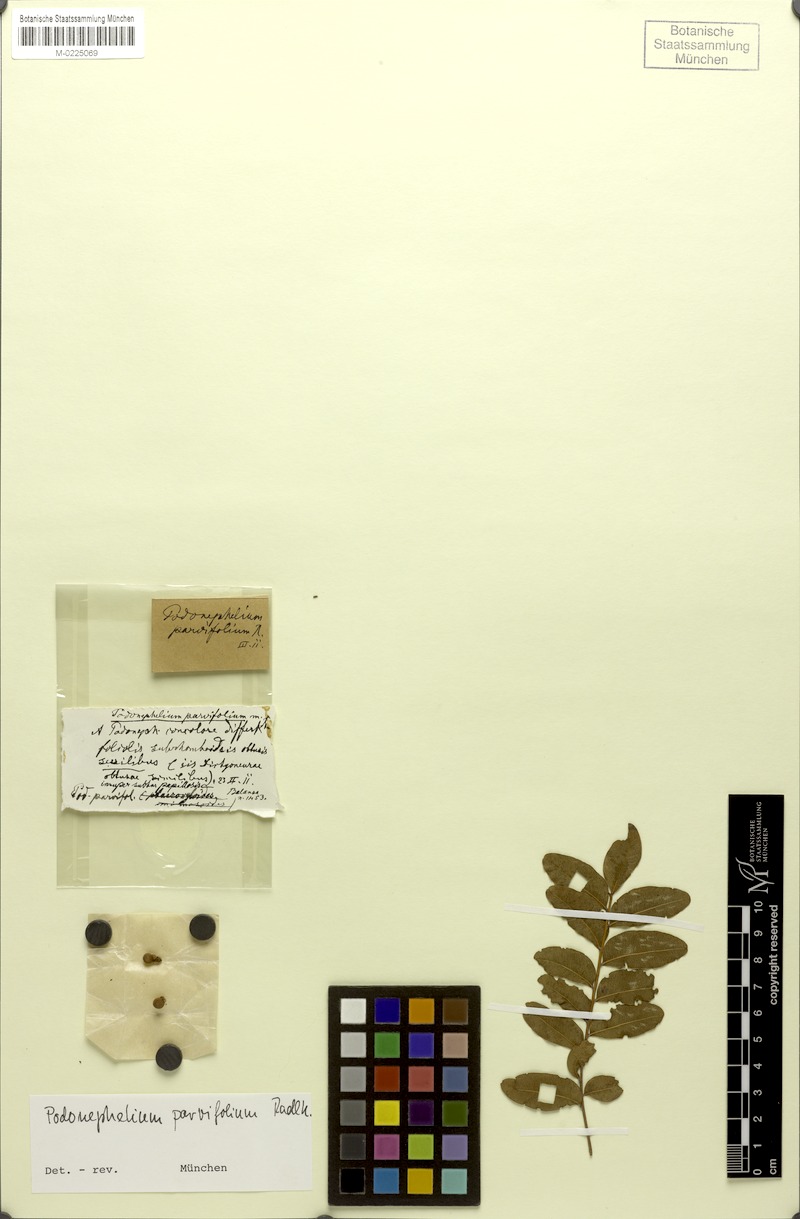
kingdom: Plantae
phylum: Tracheophyta
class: Magnoliopsida
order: Sapindales
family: Sapindaceae
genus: Podonephelium
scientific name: Podonephelium parvifolium
